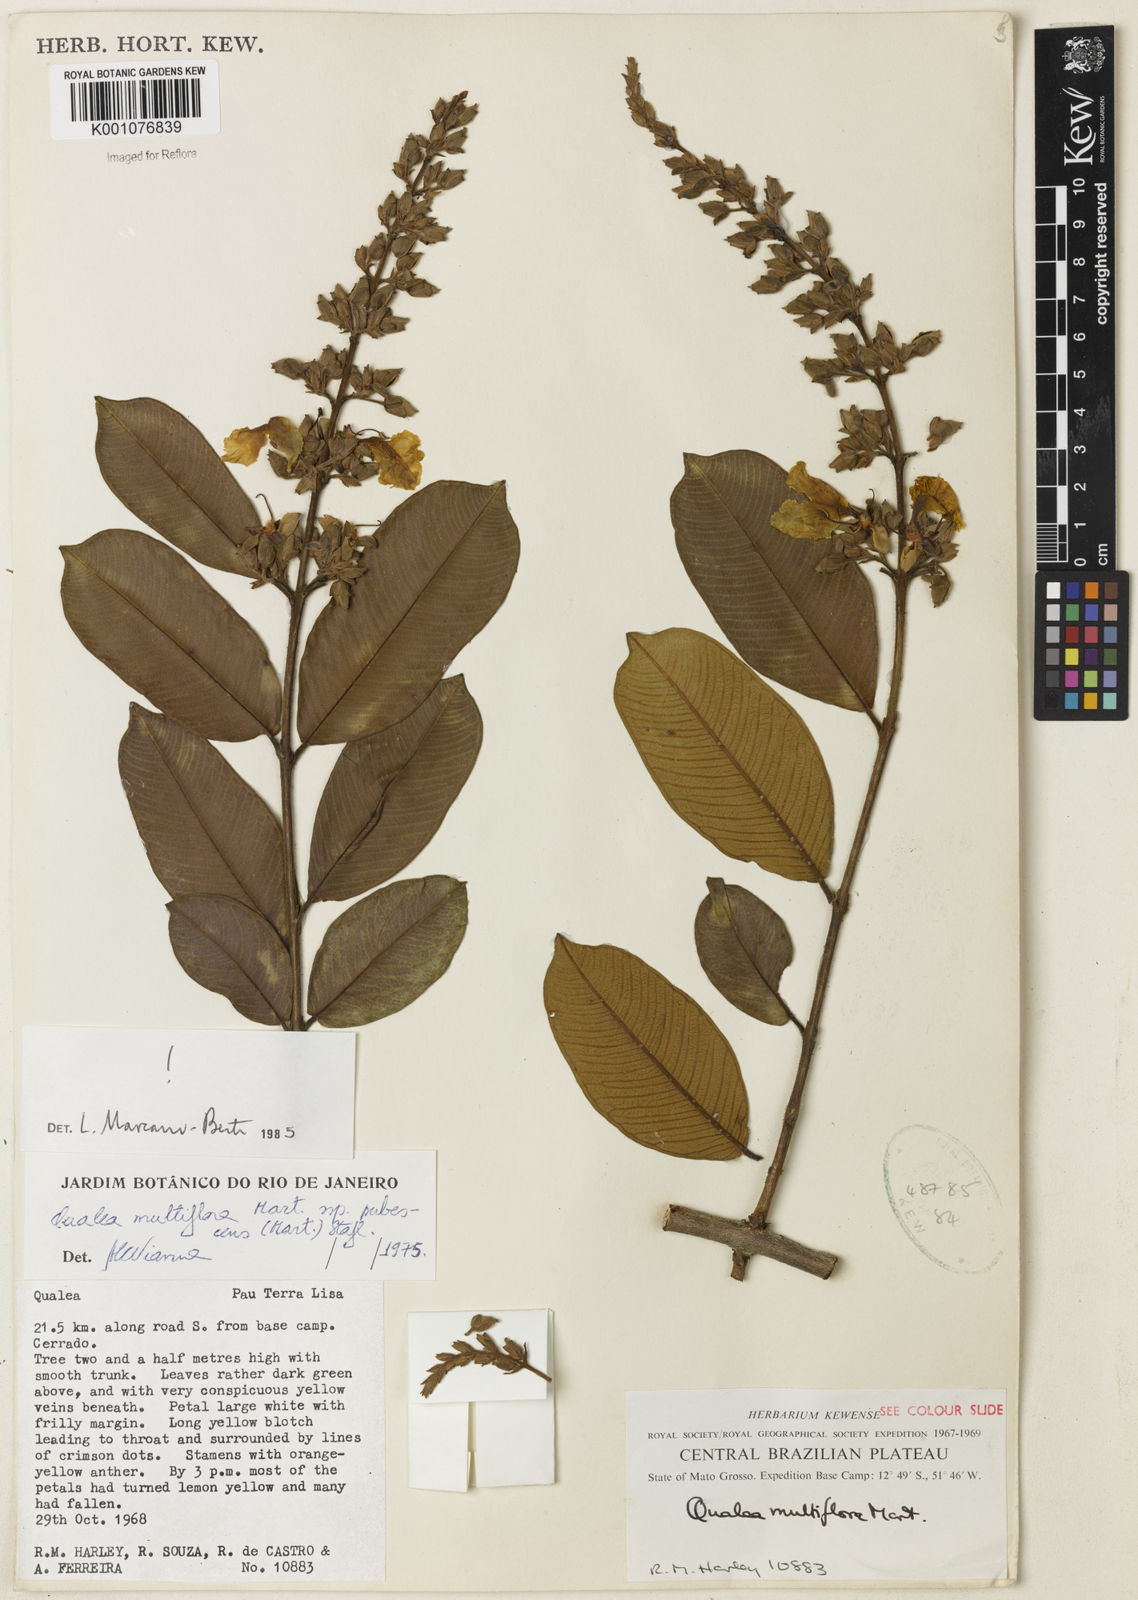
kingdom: Plantae
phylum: Tracheophyta
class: Magnoliopsida
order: Myrtales
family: Vochysiaceae
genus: Qualea
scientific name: Qualea multiflora
